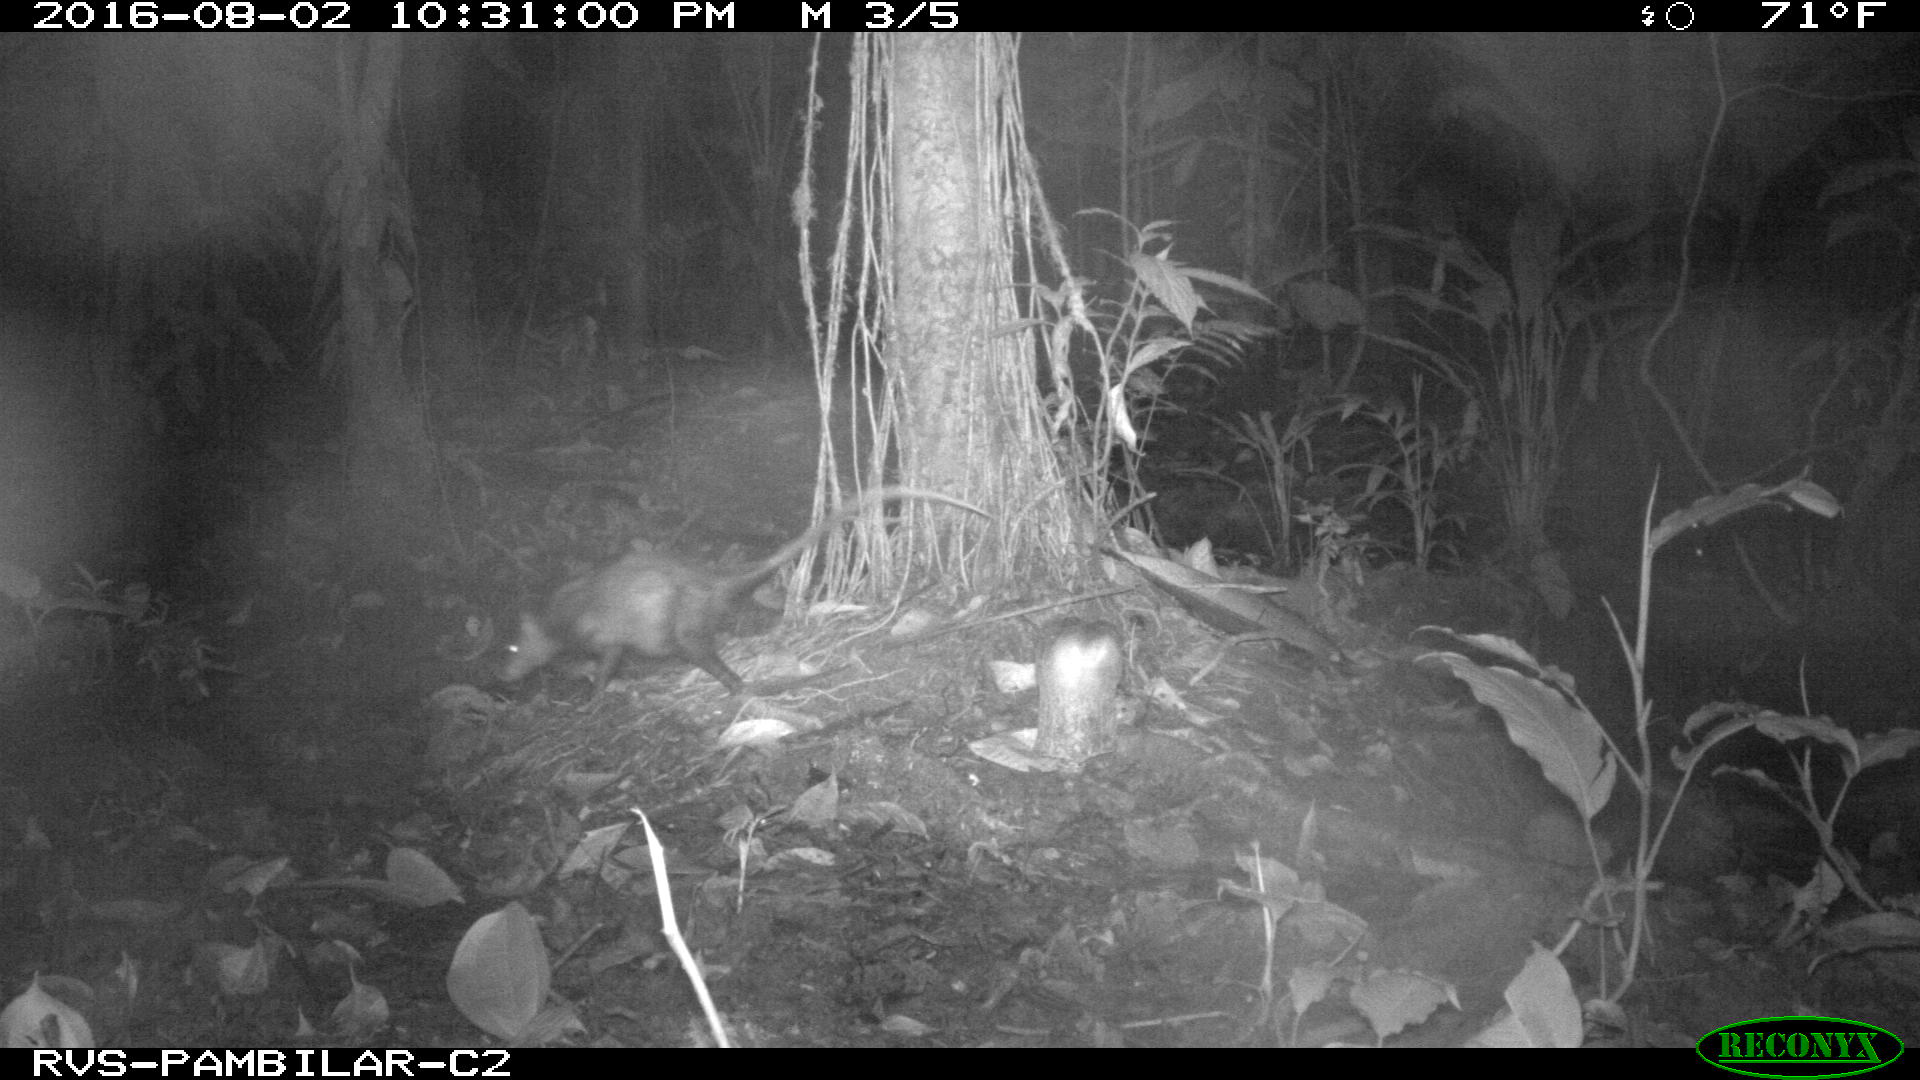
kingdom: Animalia
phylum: Chordata
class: Mammalia
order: Didelphimorphia
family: Didelphidae
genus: Didelphis
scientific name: Didelphis marsupialis
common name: Common opossum
